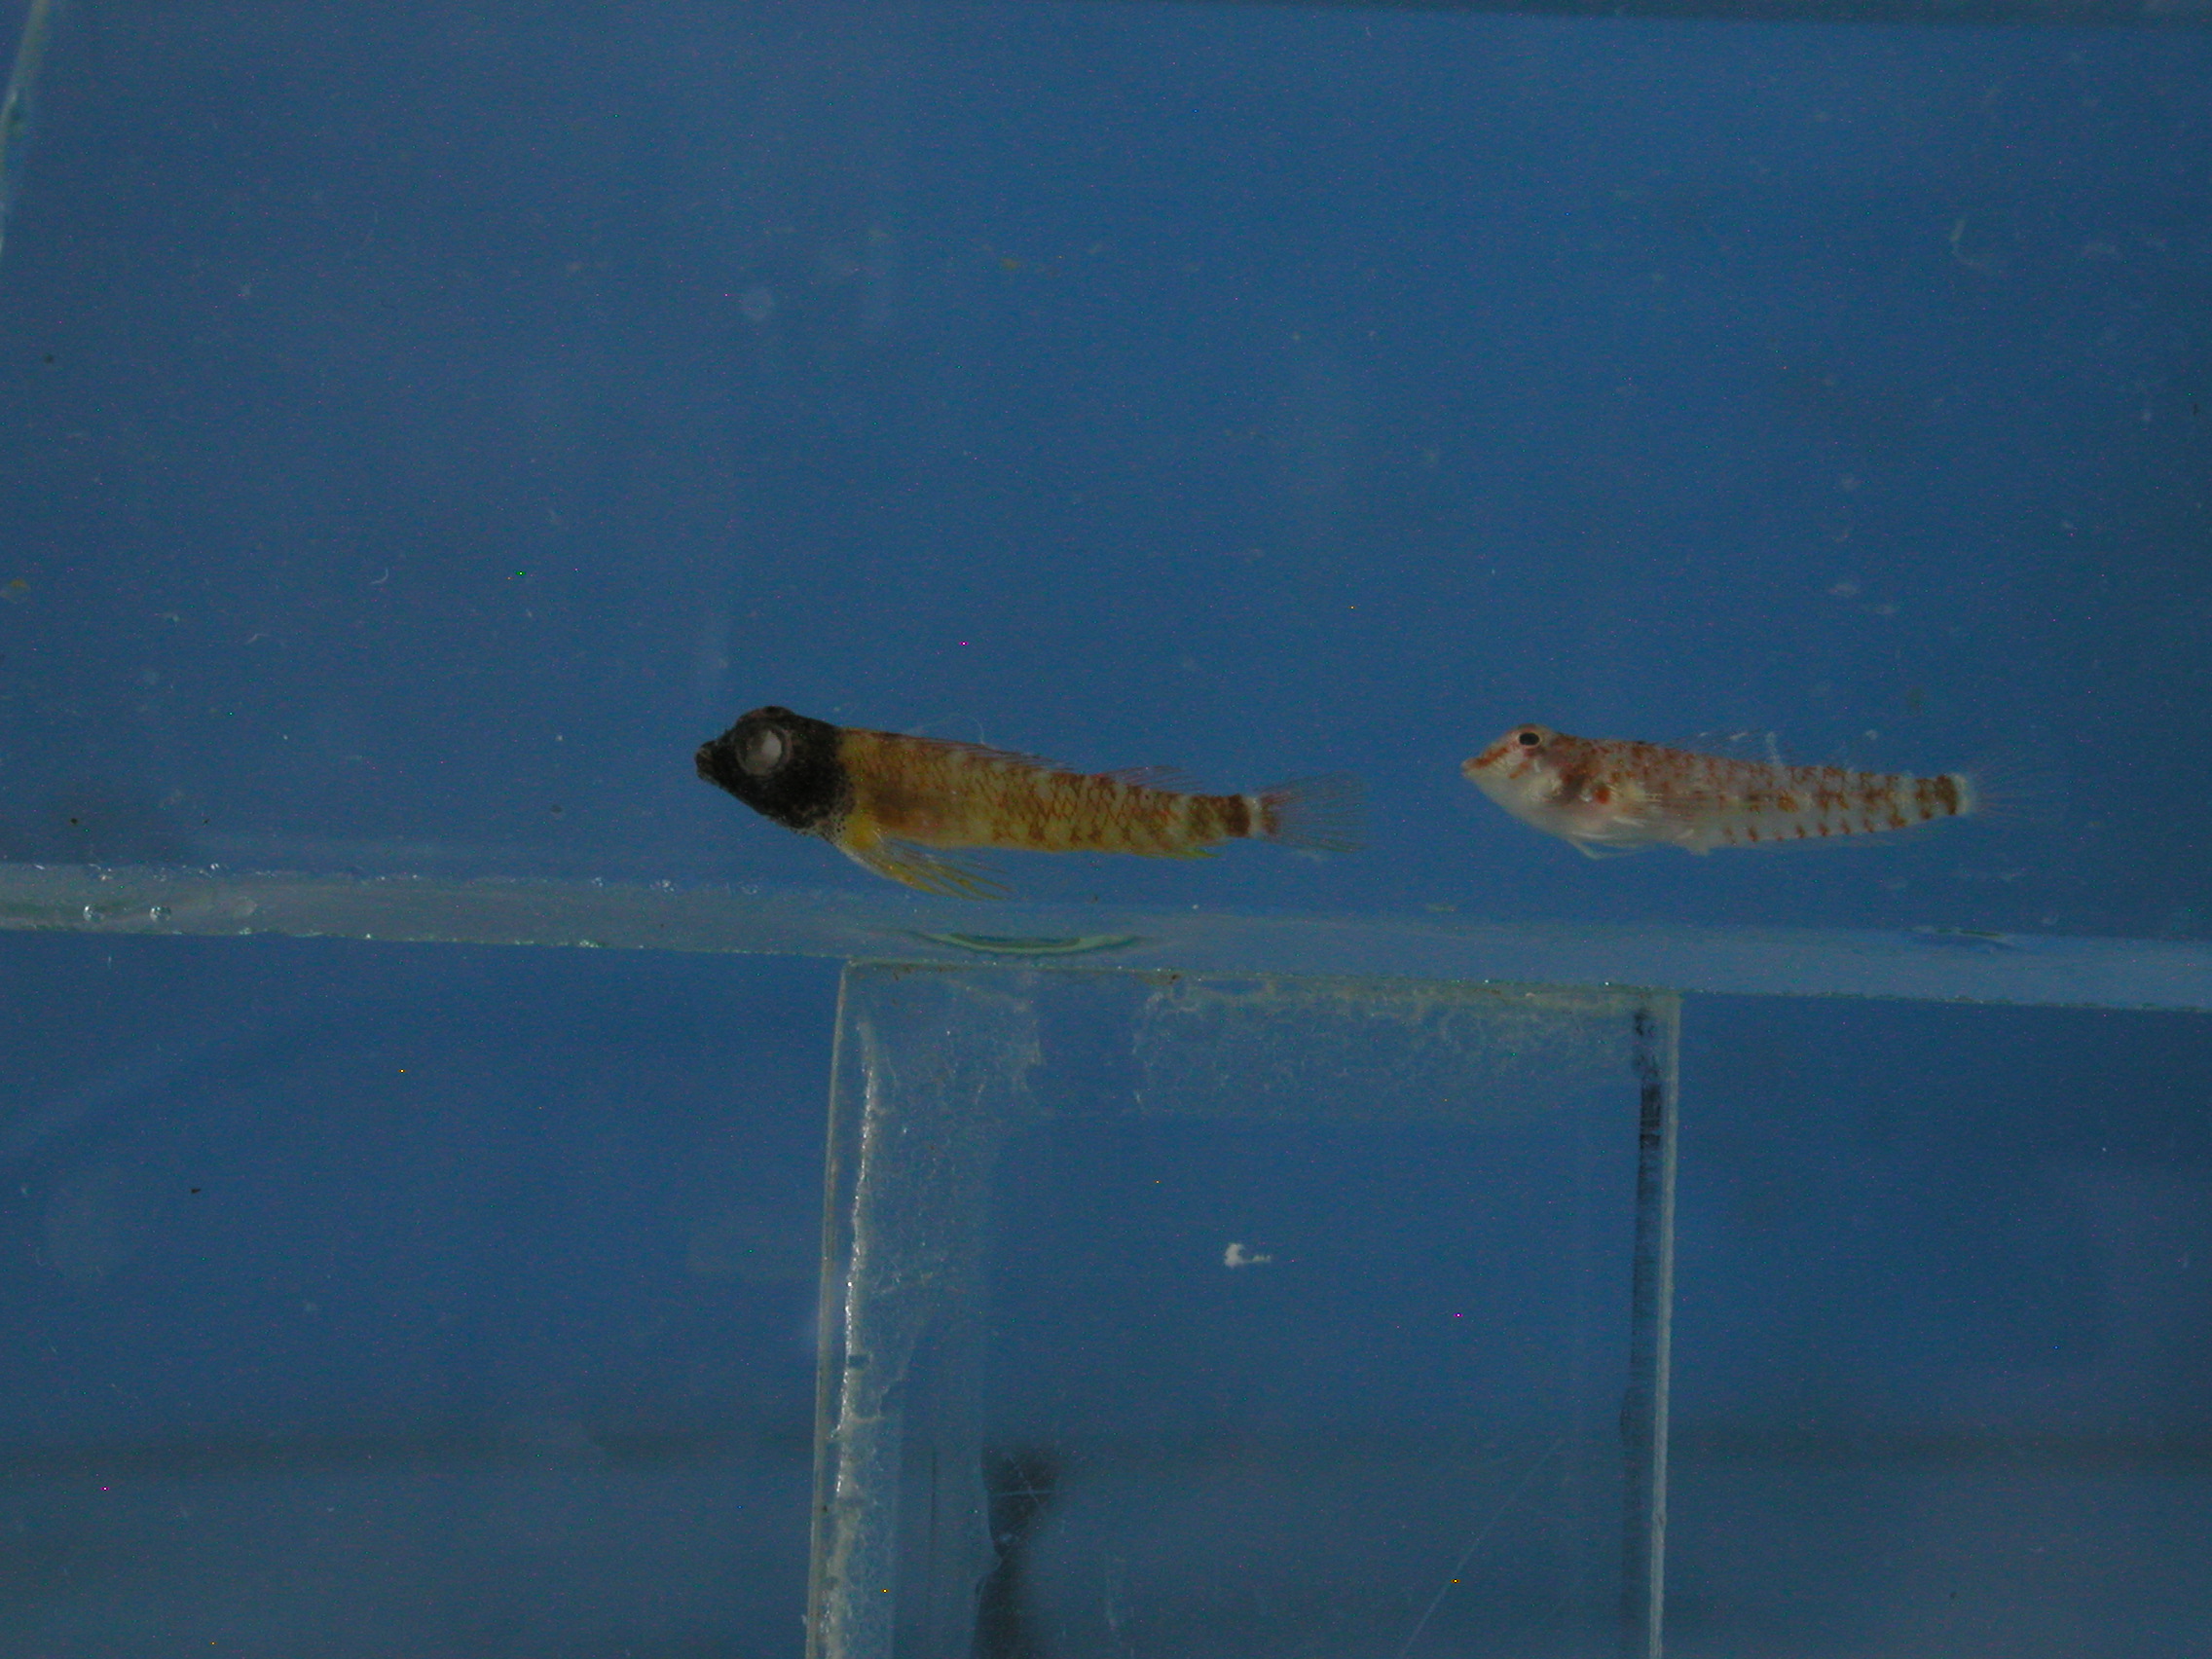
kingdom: Animalia
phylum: Chordata
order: Perciformes
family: Tripterygiidae
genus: Enneapterygius
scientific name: Enneapterygius abeli
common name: Yellow triplefin
